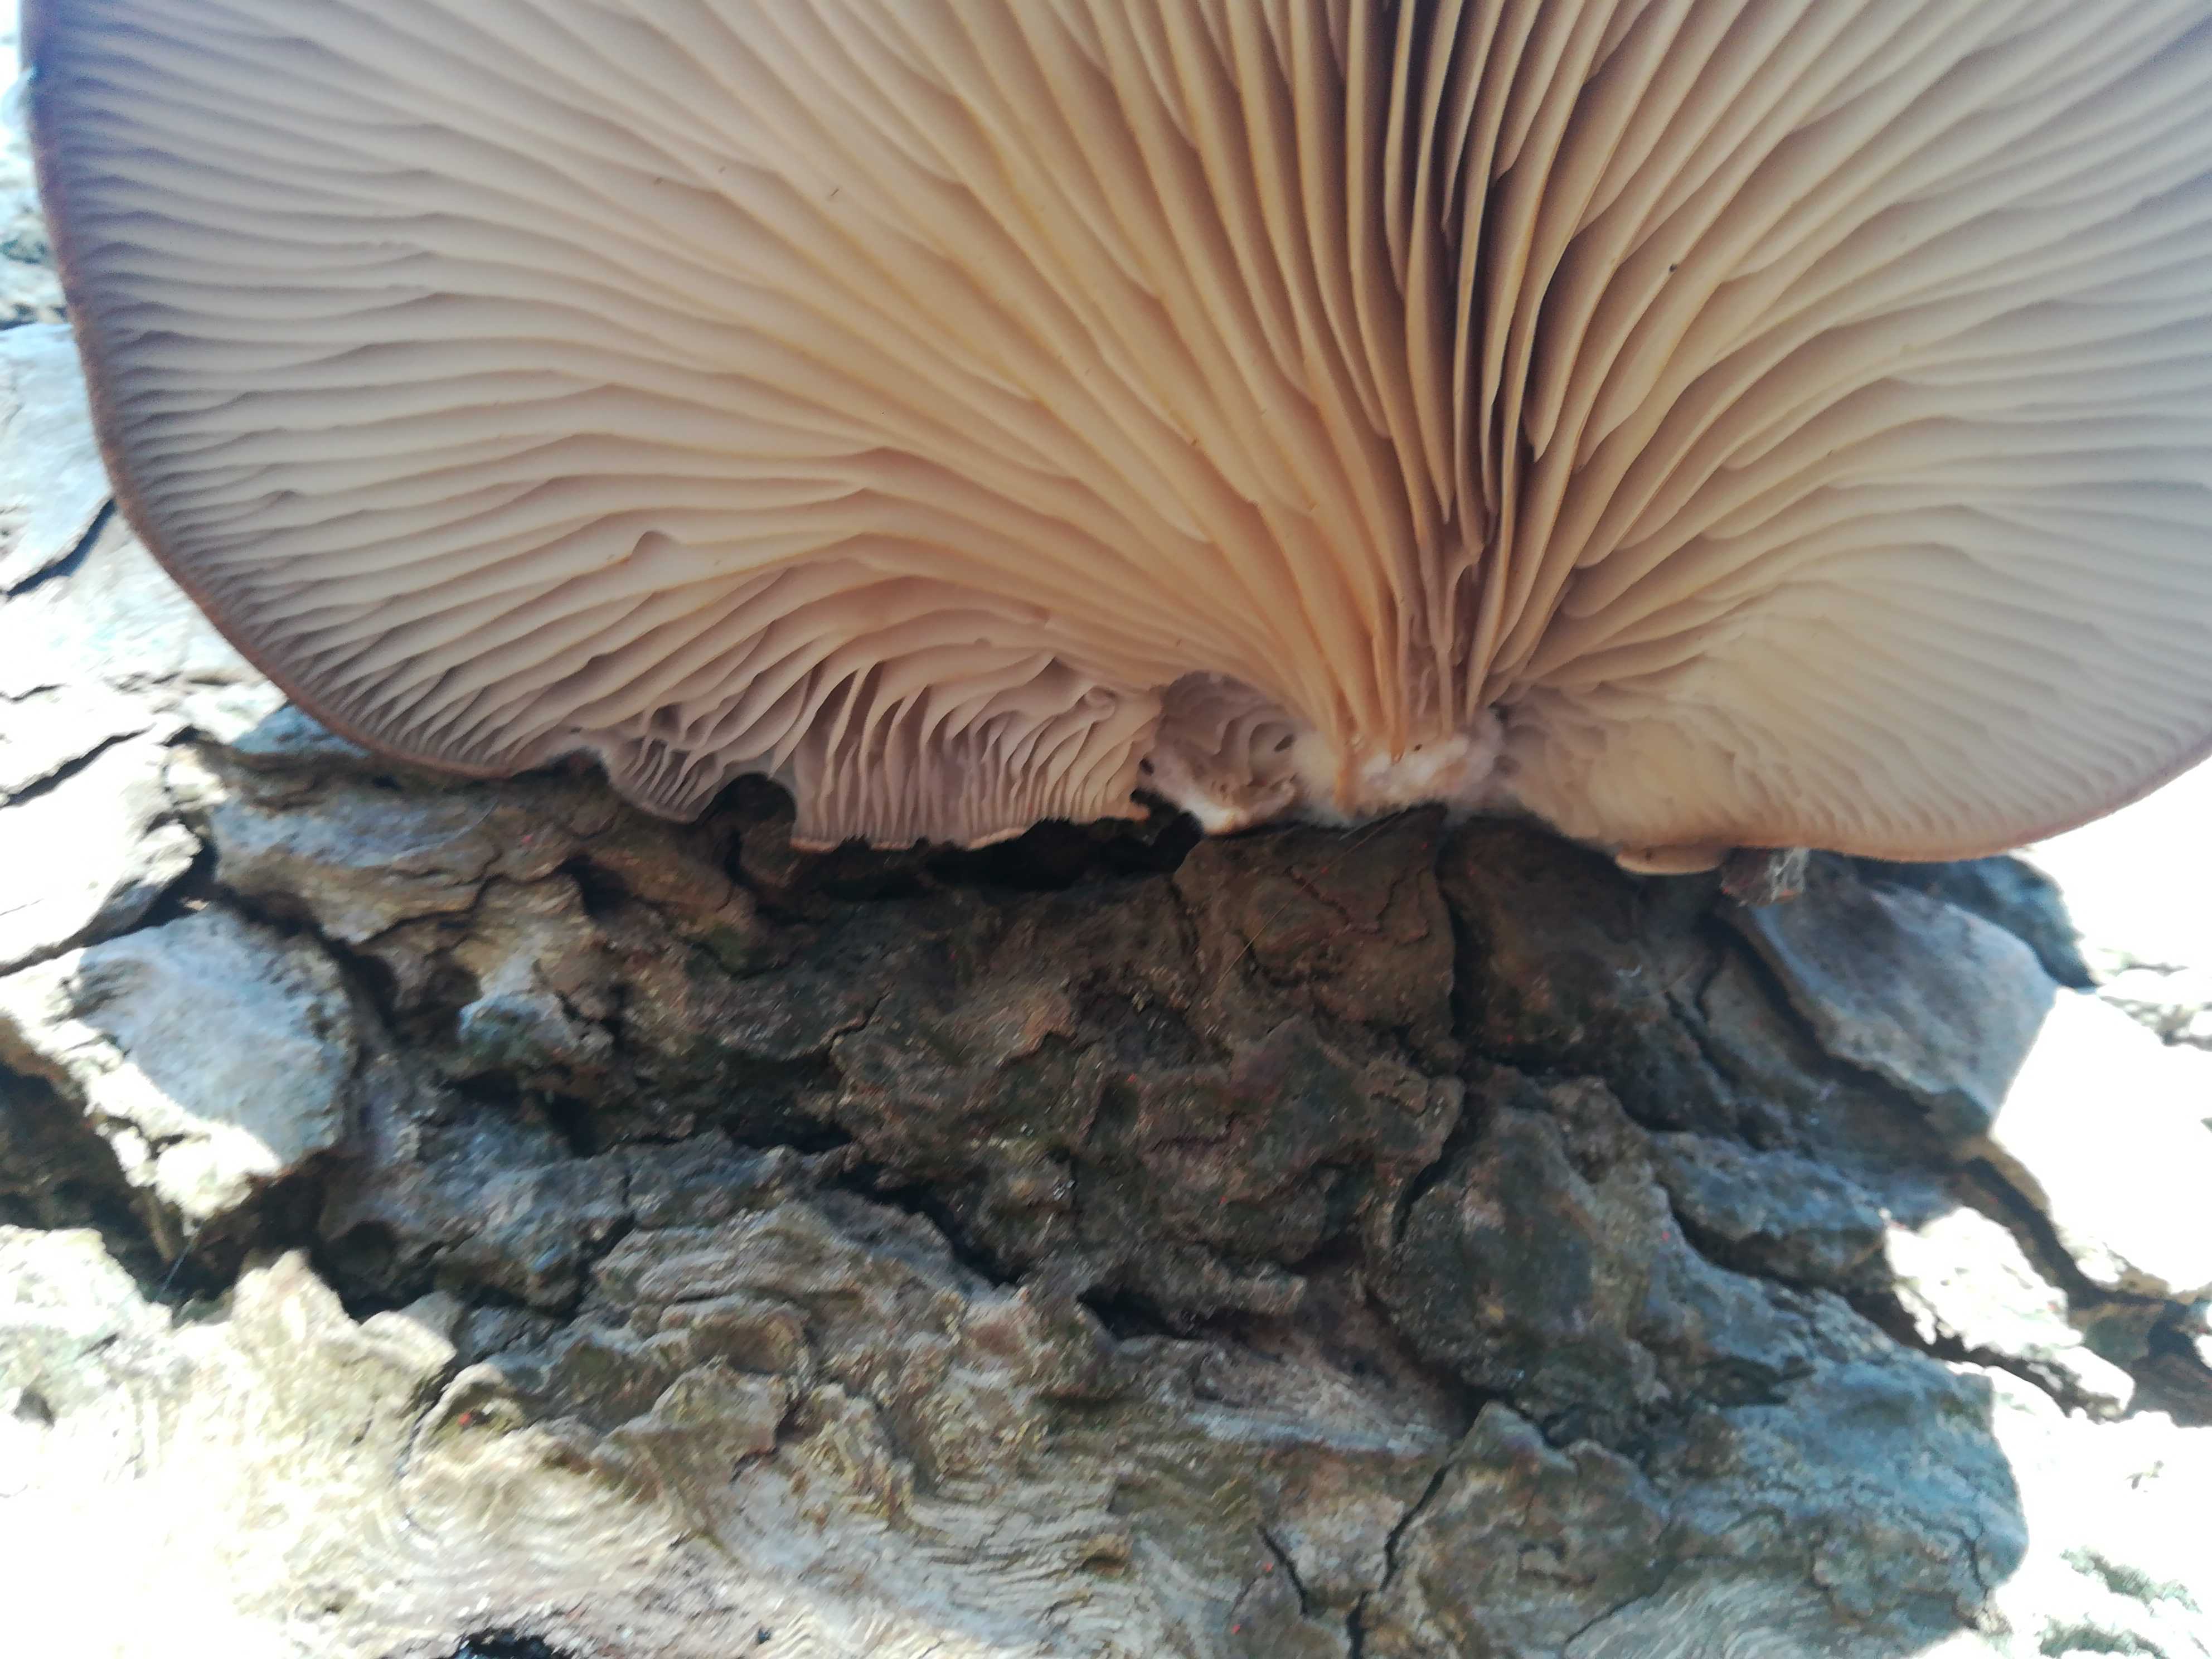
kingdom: Fungi
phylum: Basidiomycota
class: Agaricomycetes
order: Agaricales
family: Pleurotaceae
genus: Pleurotus
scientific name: Pleurotus ostreatus
